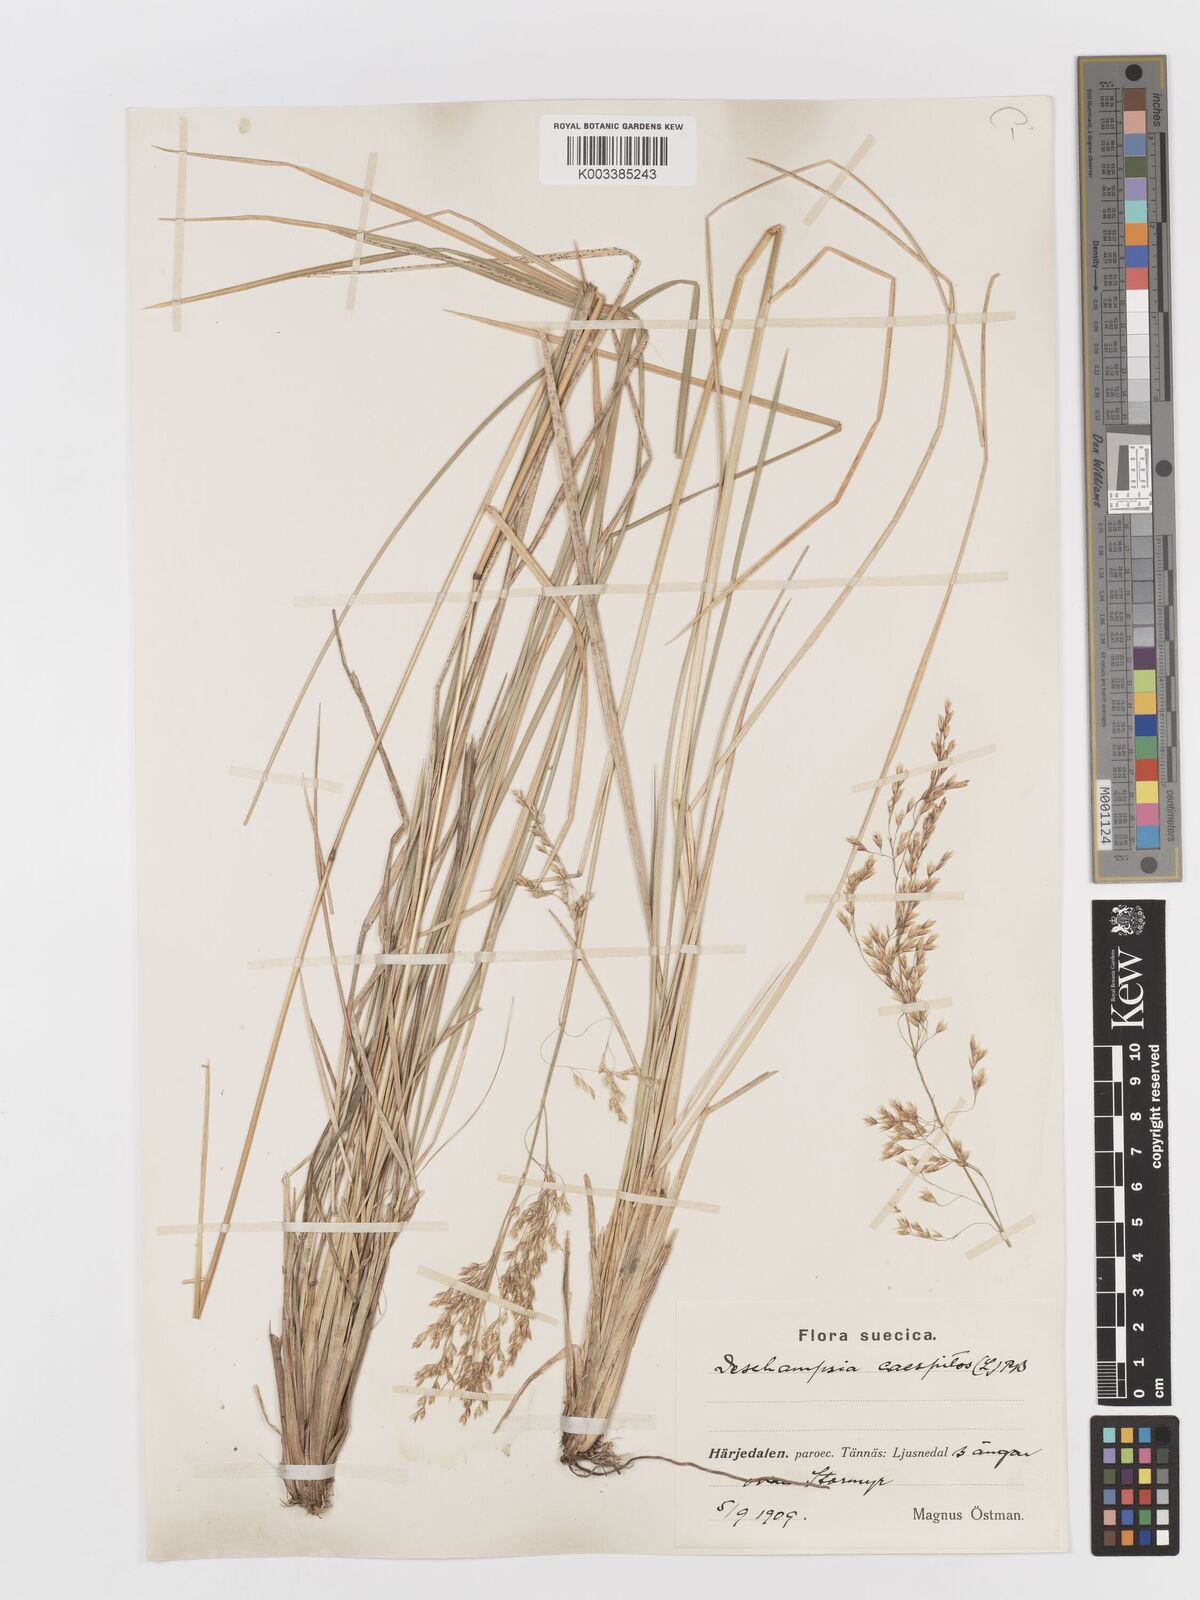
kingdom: Plantae
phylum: Tracheophyta
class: Liliopsida
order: Poales
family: Poaceae
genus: Deschampsia
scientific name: Deschampsia cespitosa
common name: Tufted hair-grass
